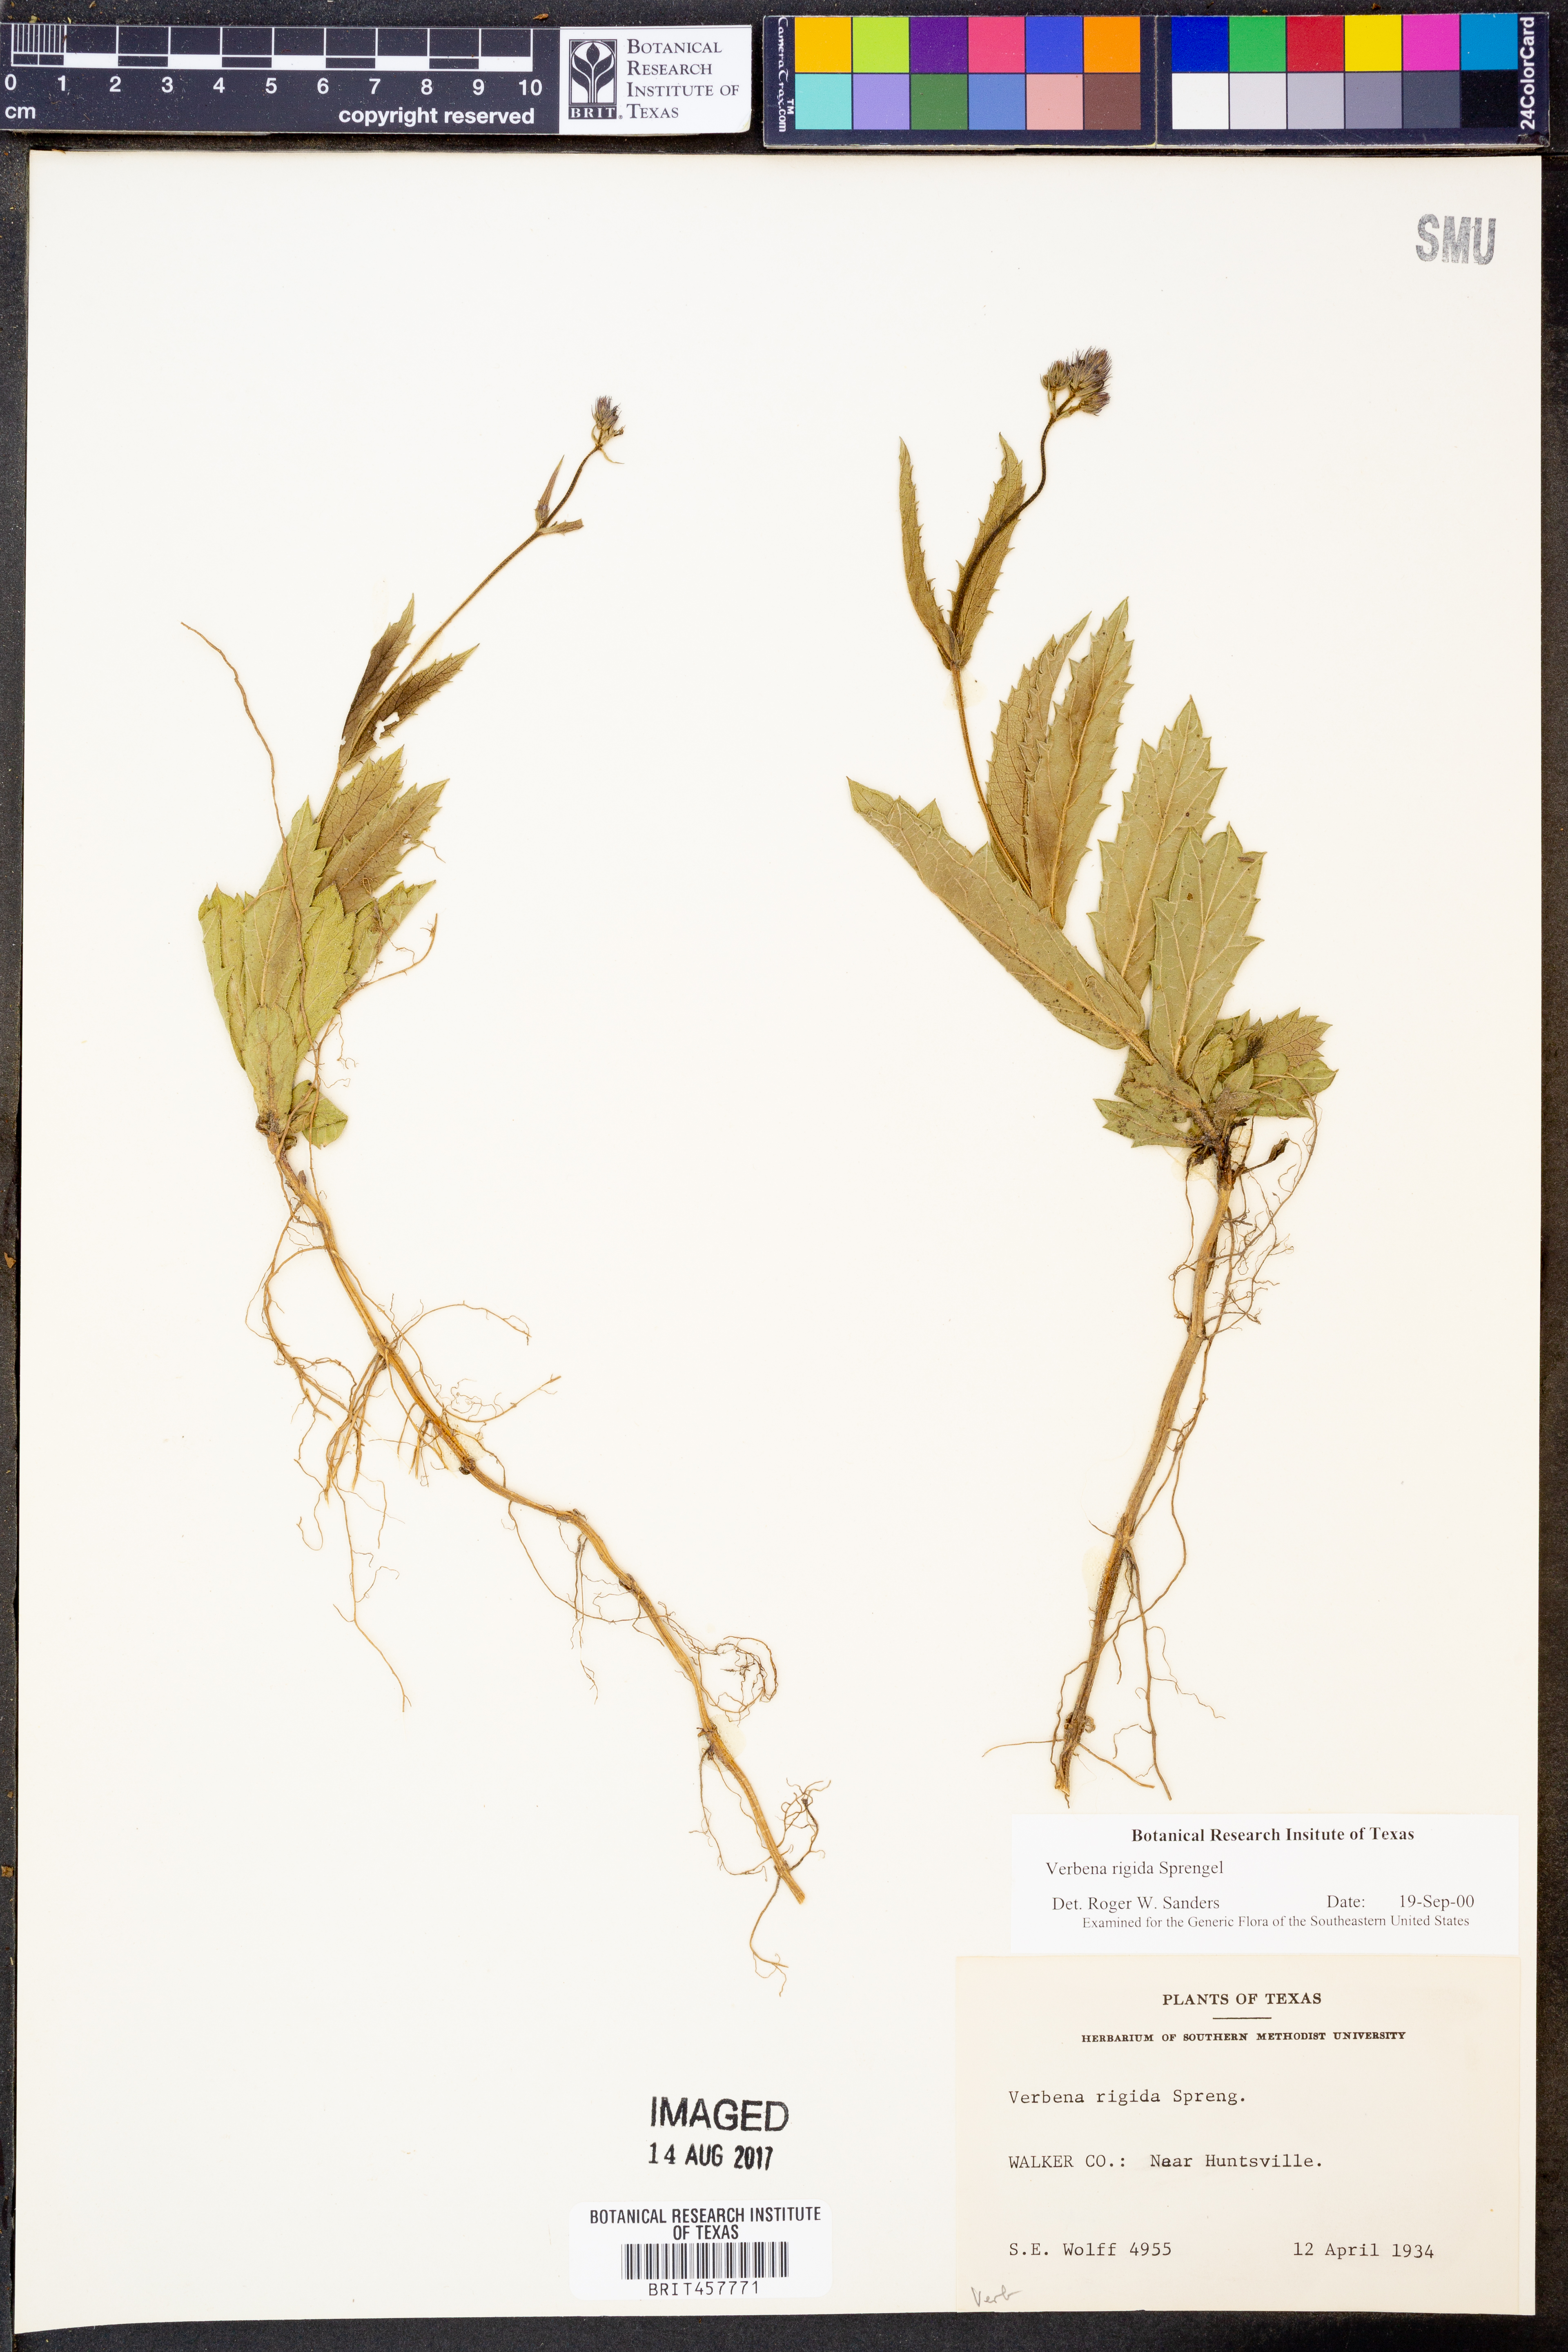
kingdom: Plantae
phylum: Tracheophyta
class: Magnoliopsida
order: Lamiales
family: Verbenaceae
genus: Verbena
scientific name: Verbena rigida
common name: Slender vervain
